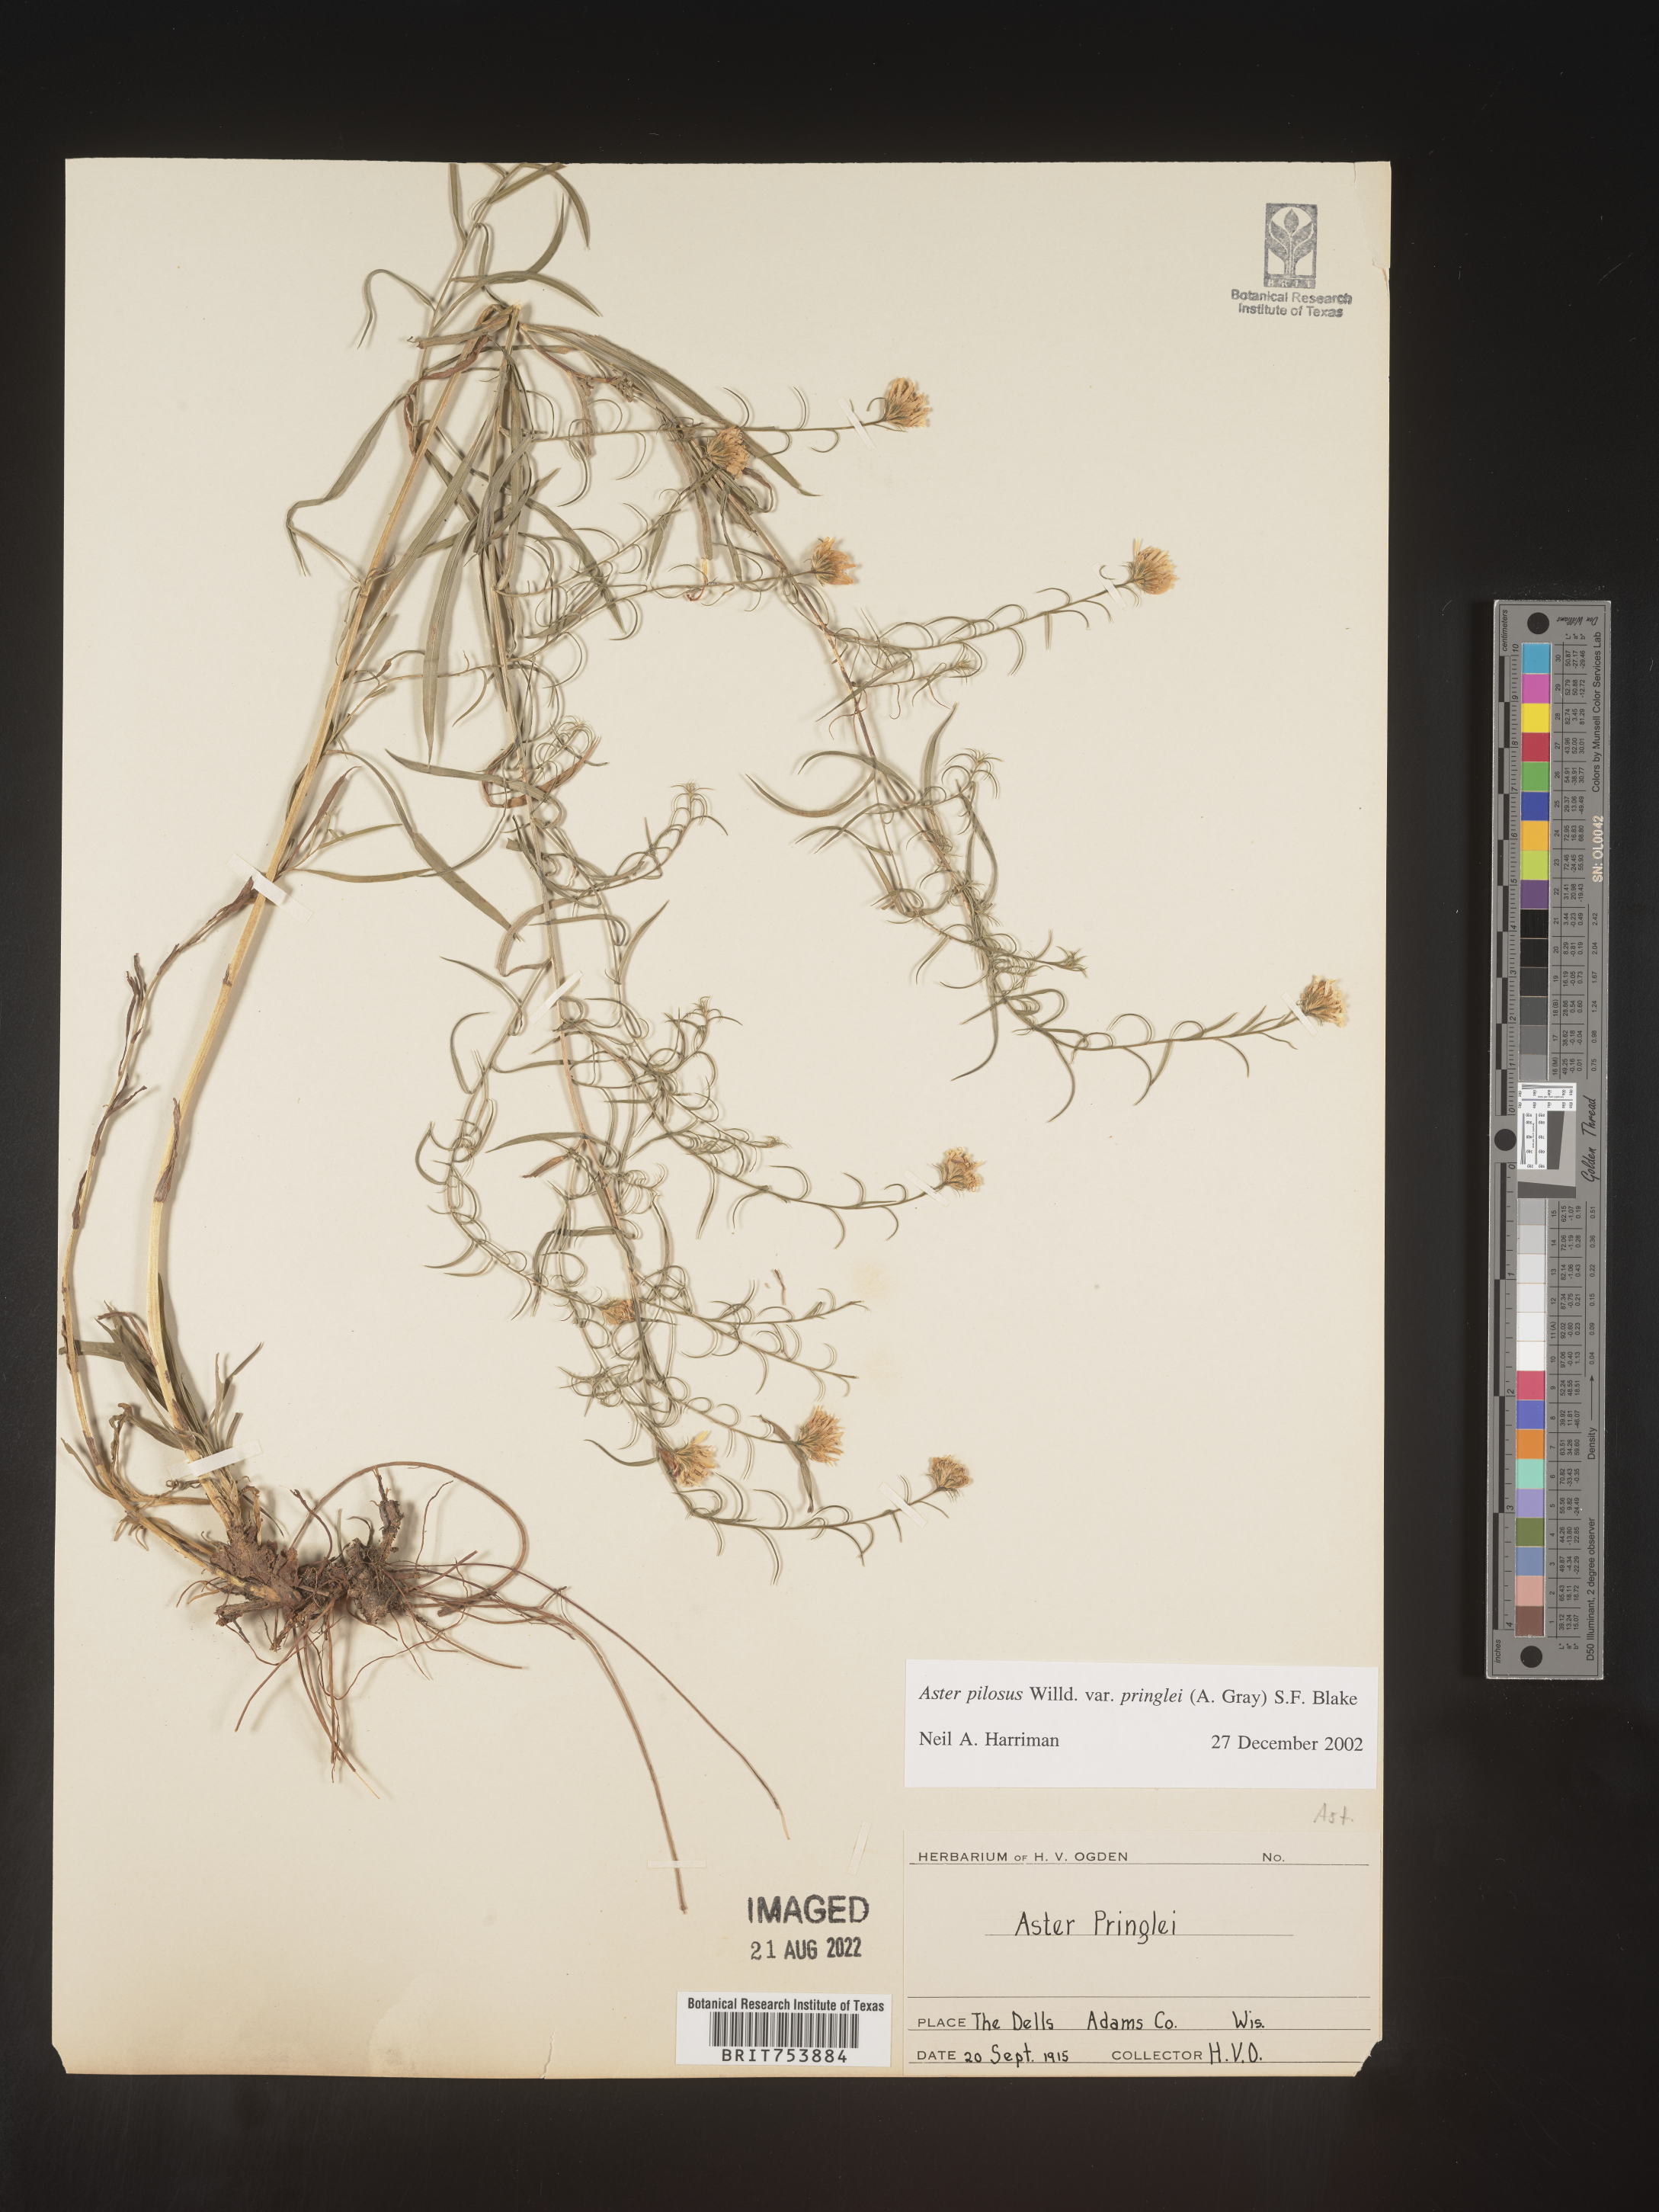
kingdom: Plantae
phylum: Tracheophyta
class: Magnoliopsida
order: Asterales
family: Asteraceae
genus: Symphyotrichum
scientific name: Symphyotrichum pilosum
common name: Awl aster
